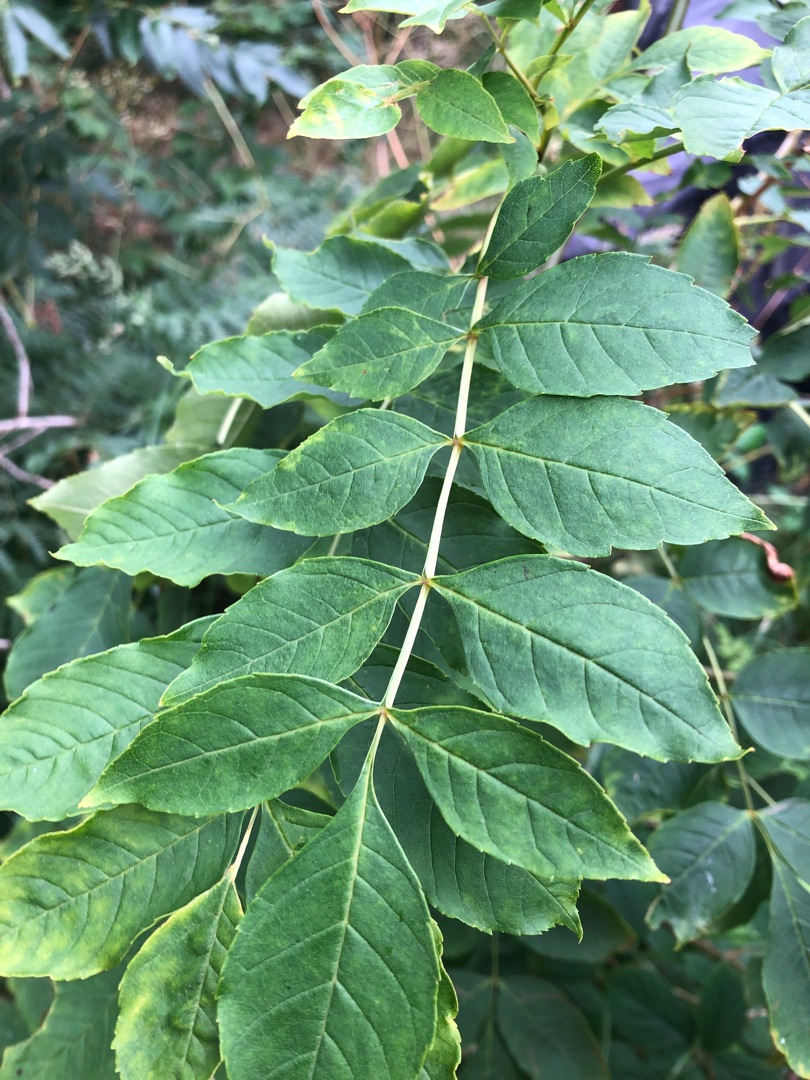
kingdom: Plantae
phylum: Tracheophyta
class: Magnoliopsida
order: Lamiales
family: Oleaceae
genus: Fraxinus
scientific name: Fraxinus excelsior
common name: Ask
